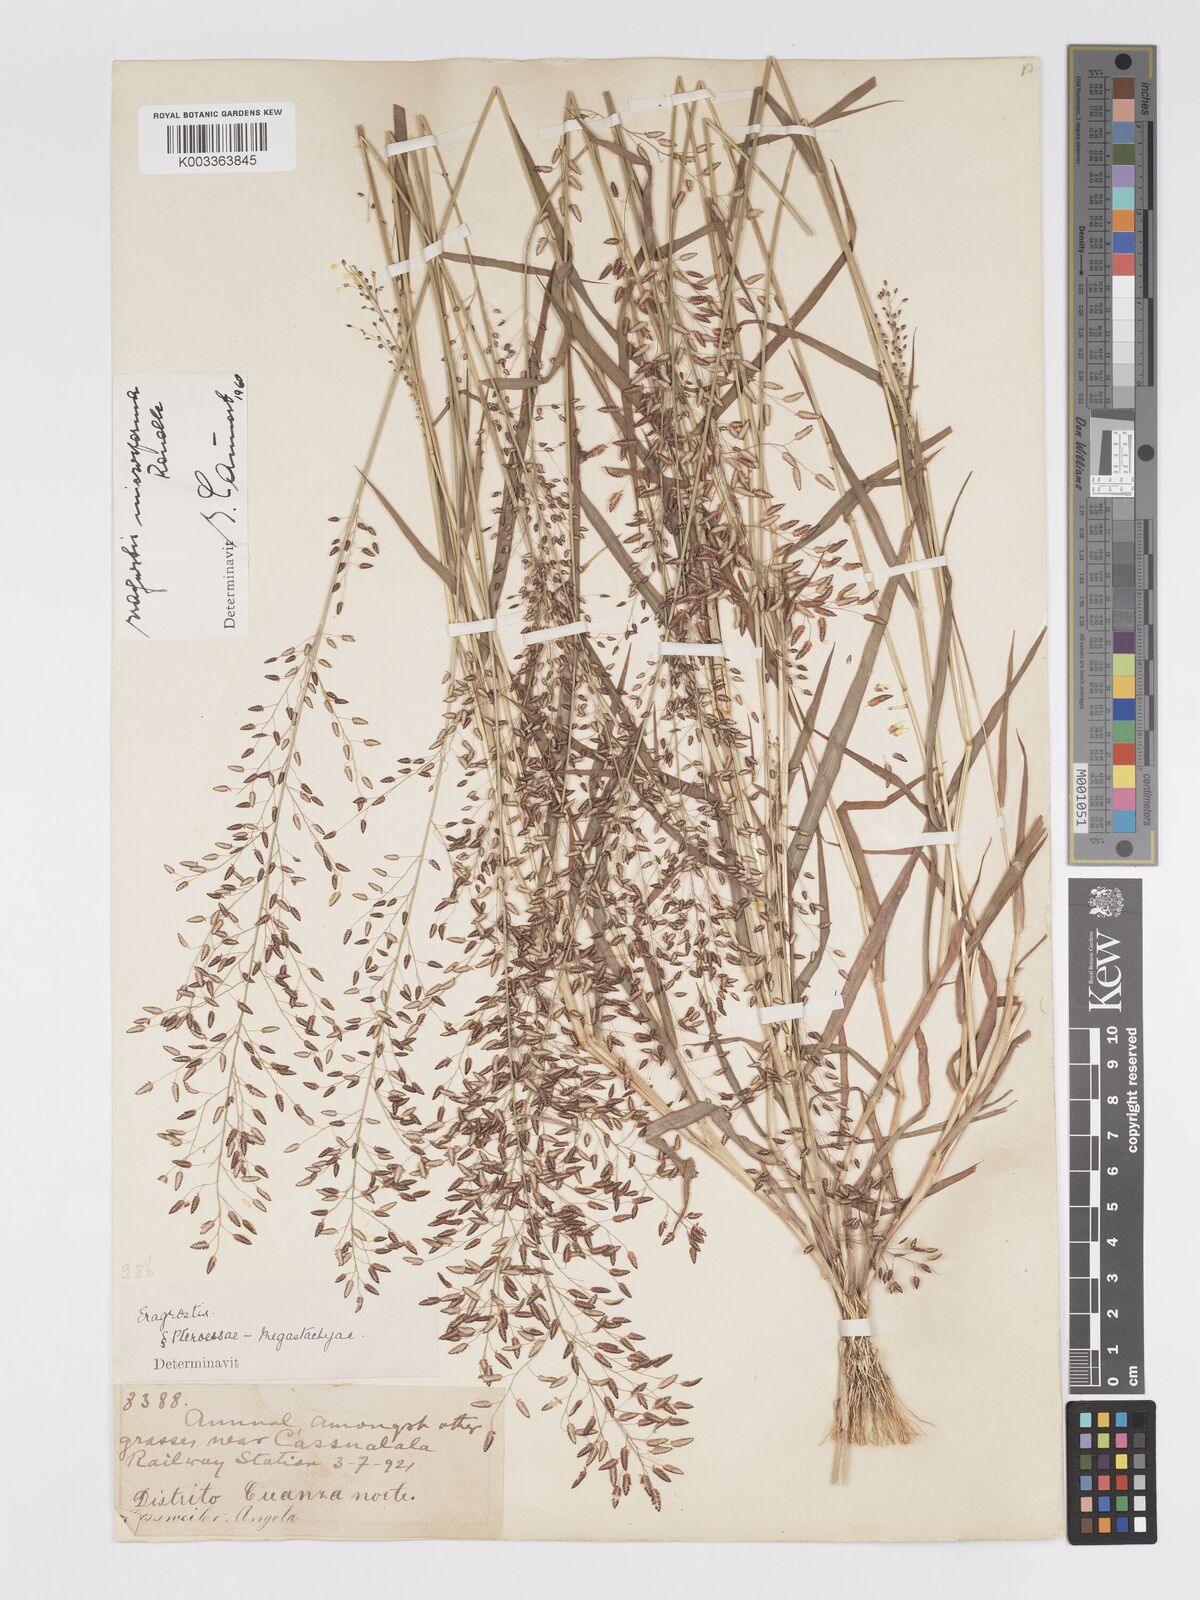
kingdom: Plantae
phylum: Tracheophyta
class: Liliopsida
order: Poales
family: Poaceae
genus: Eragrostis
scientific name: Eragrostis microsperma
